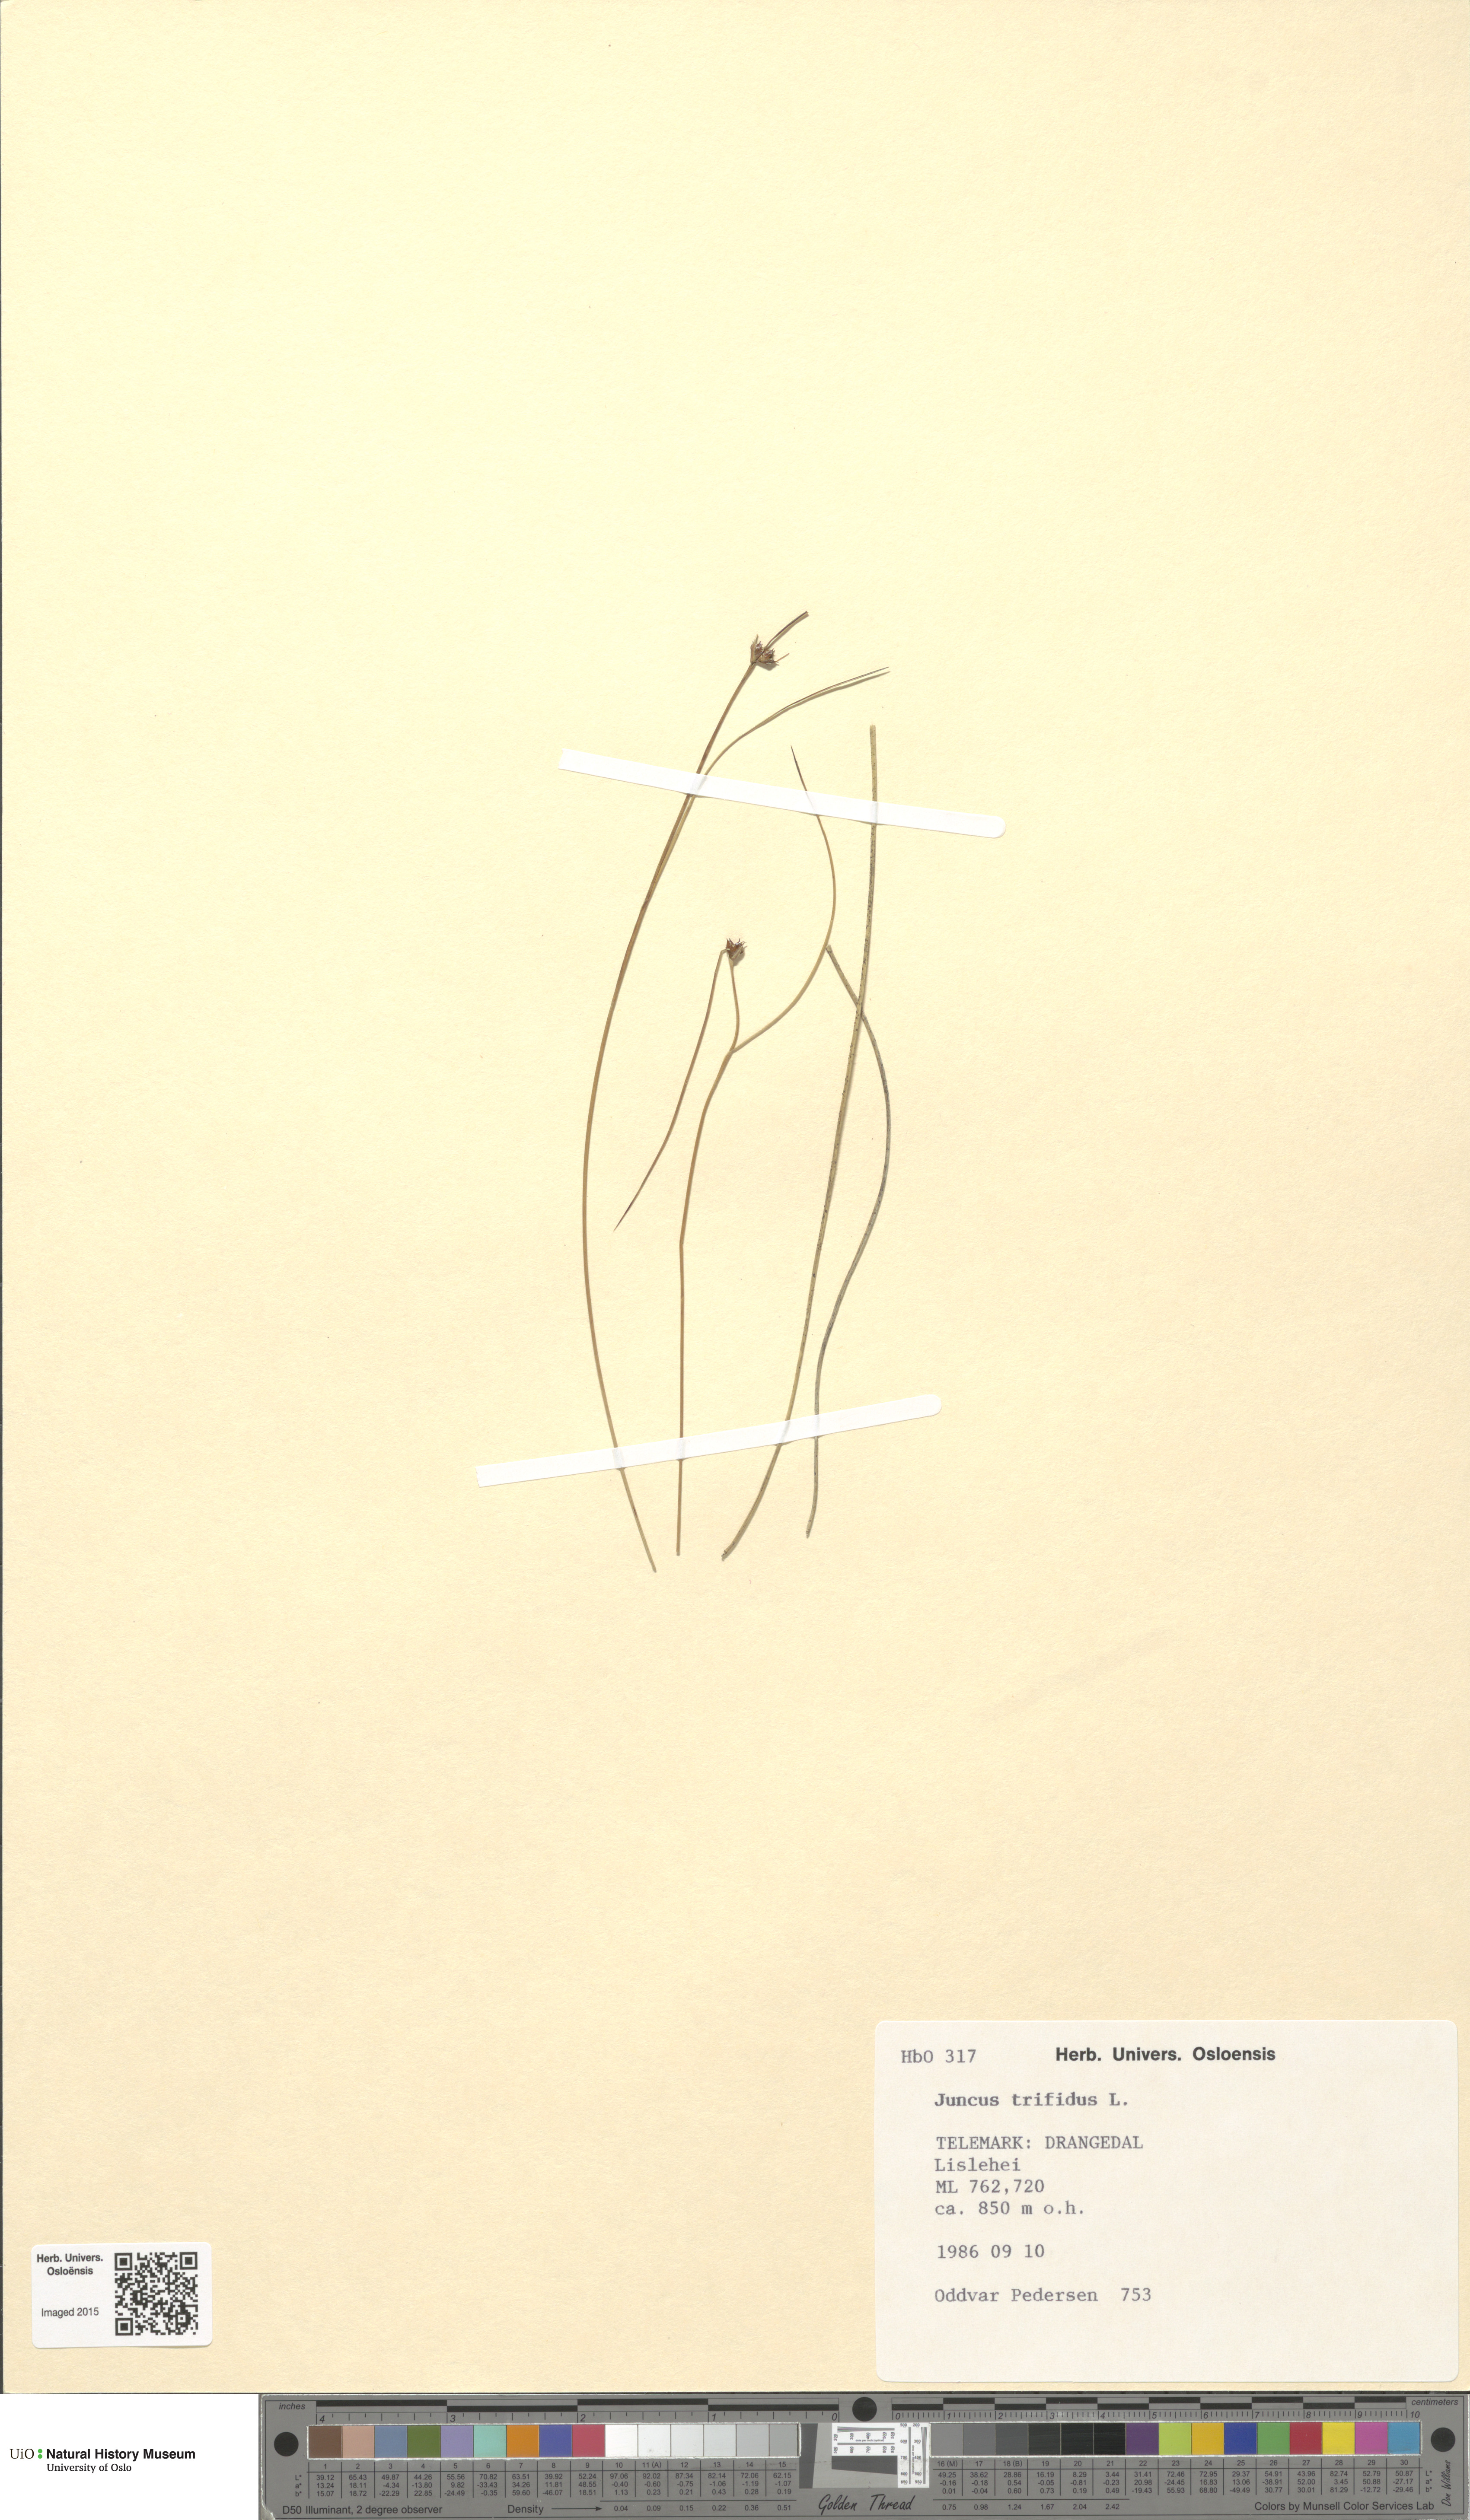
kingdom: Plantae
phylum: Tracheophyta
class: Liliopsida
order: Poales
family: Juncaceae
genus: Oreojuncus
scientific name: Oreojuncus trifidus
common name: Highland rush
